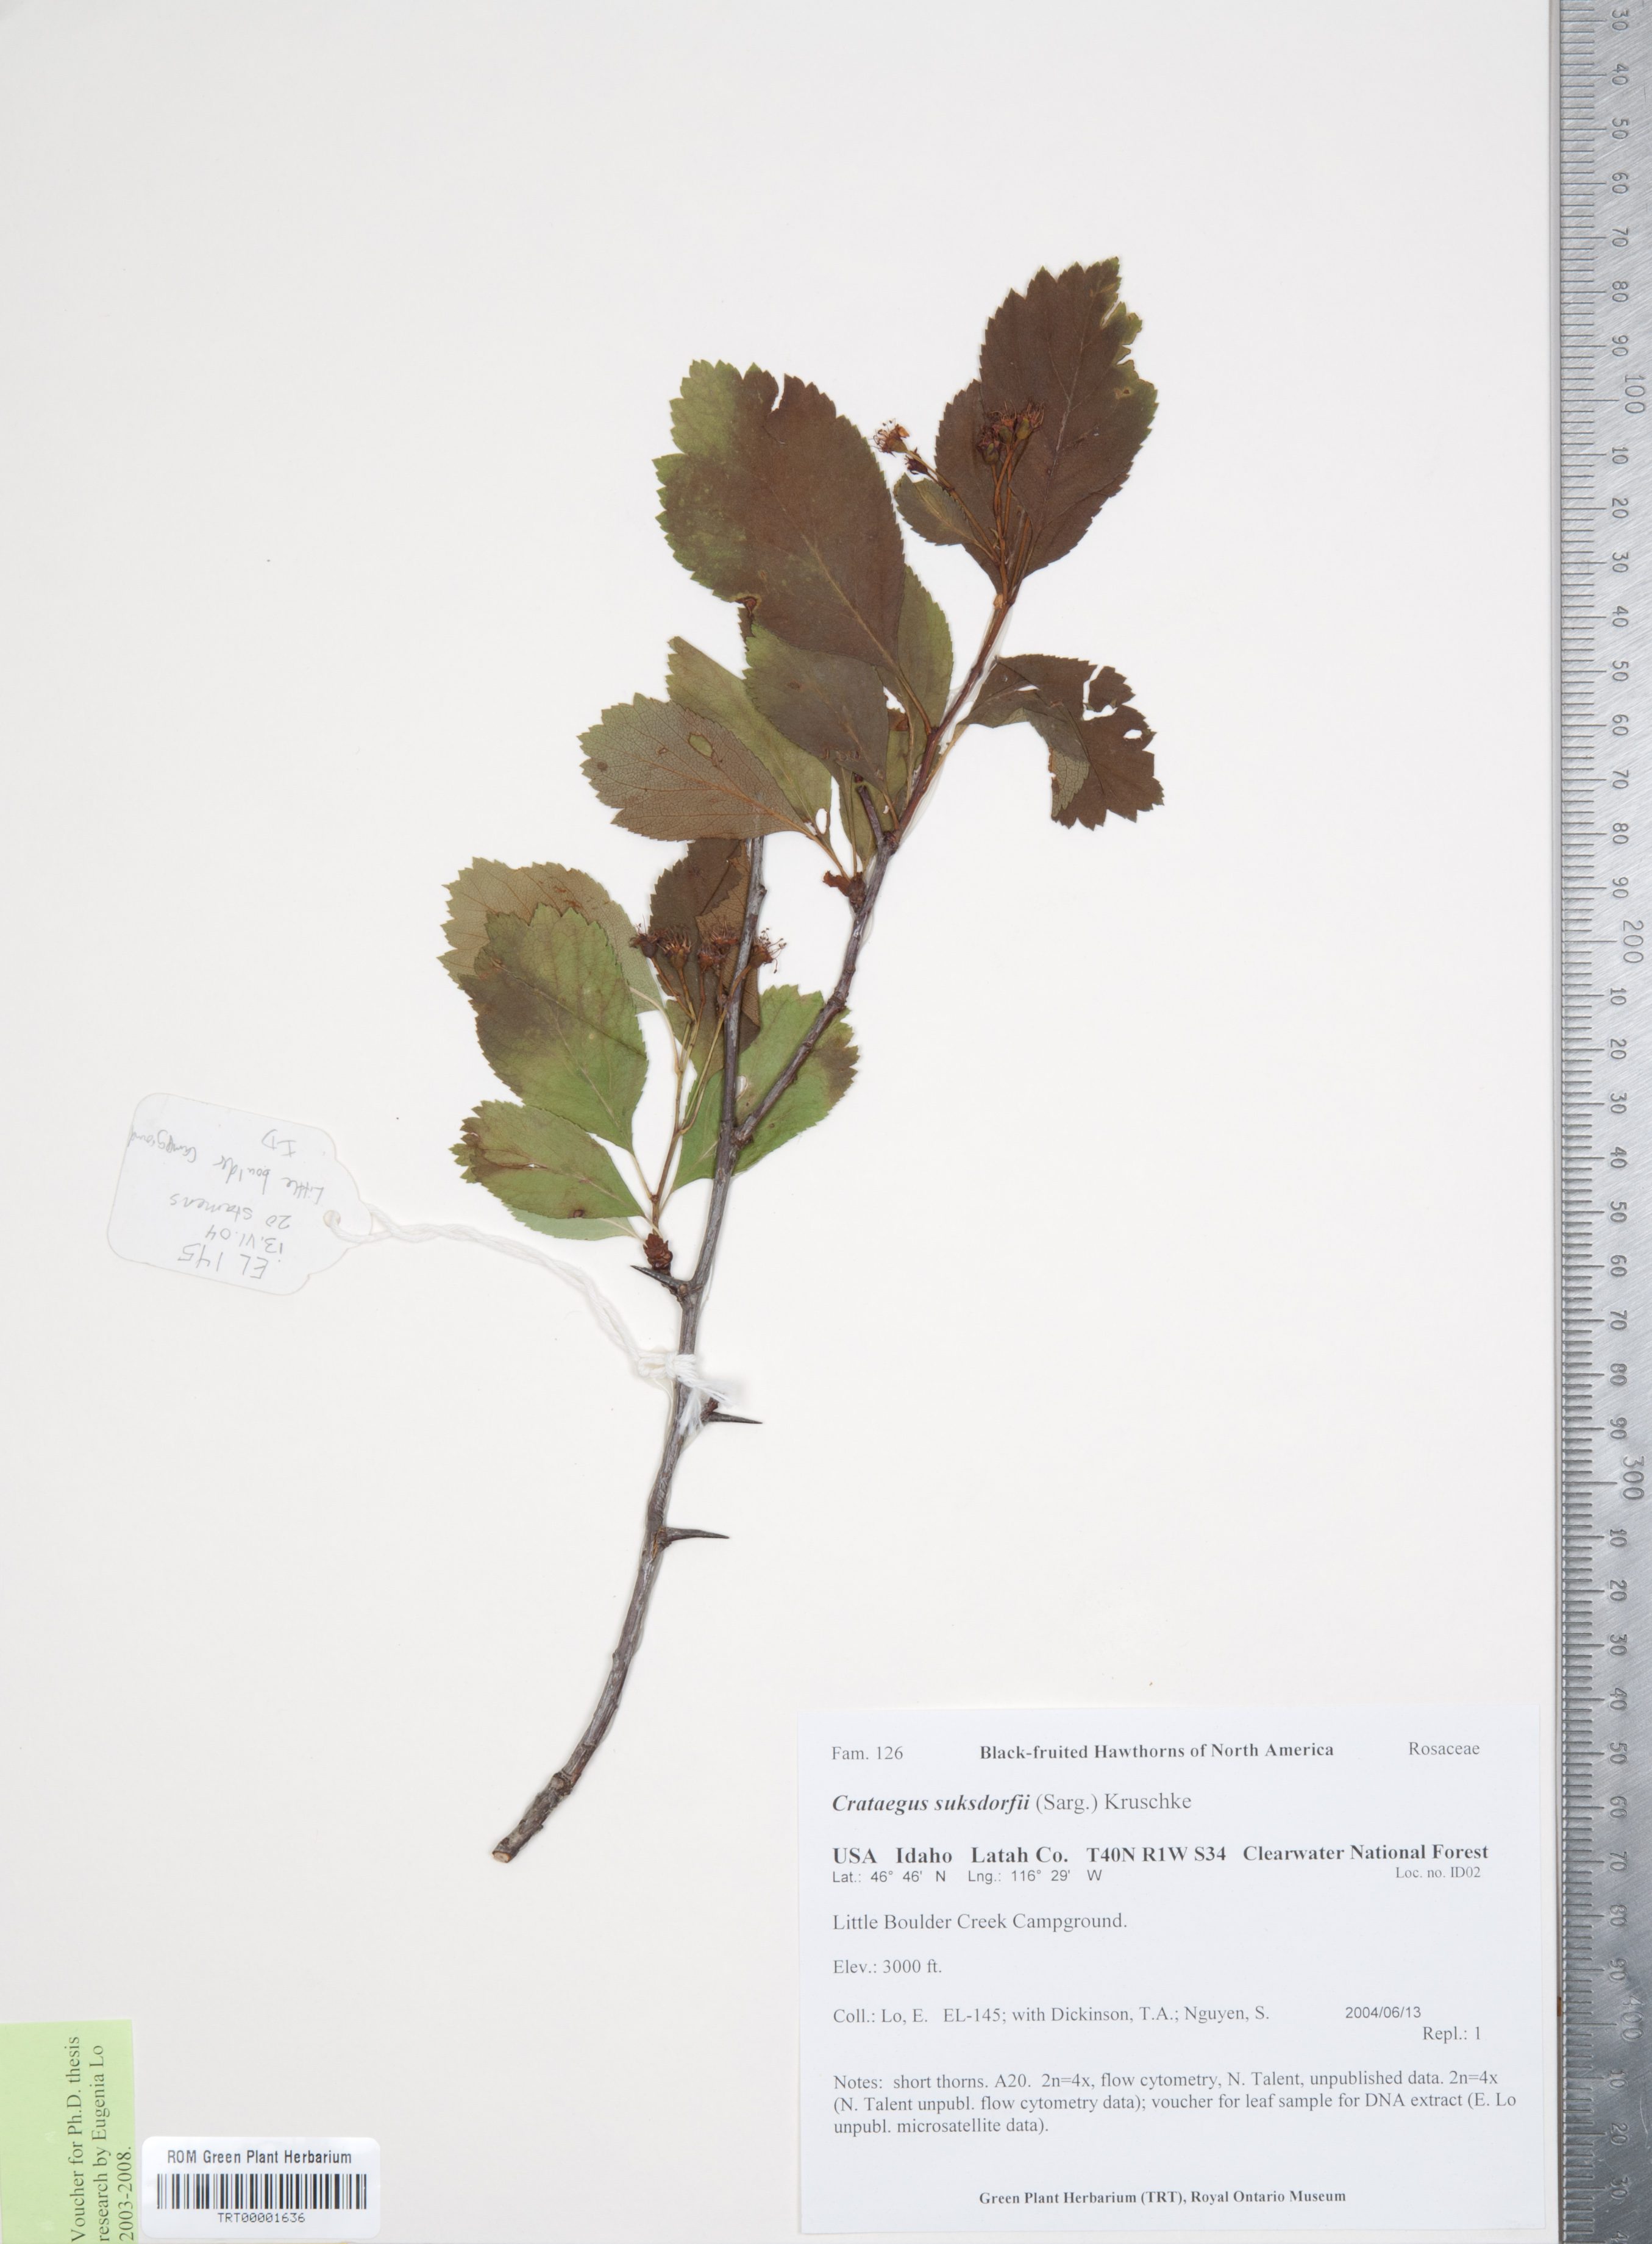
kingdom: Plantae
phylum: Tracheophyta
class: Magnoliopsida
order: Rosales
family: Rosaceae
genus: Crataegus
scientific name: Crataegus gaylussacia
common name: Huckleberry hawthorn
